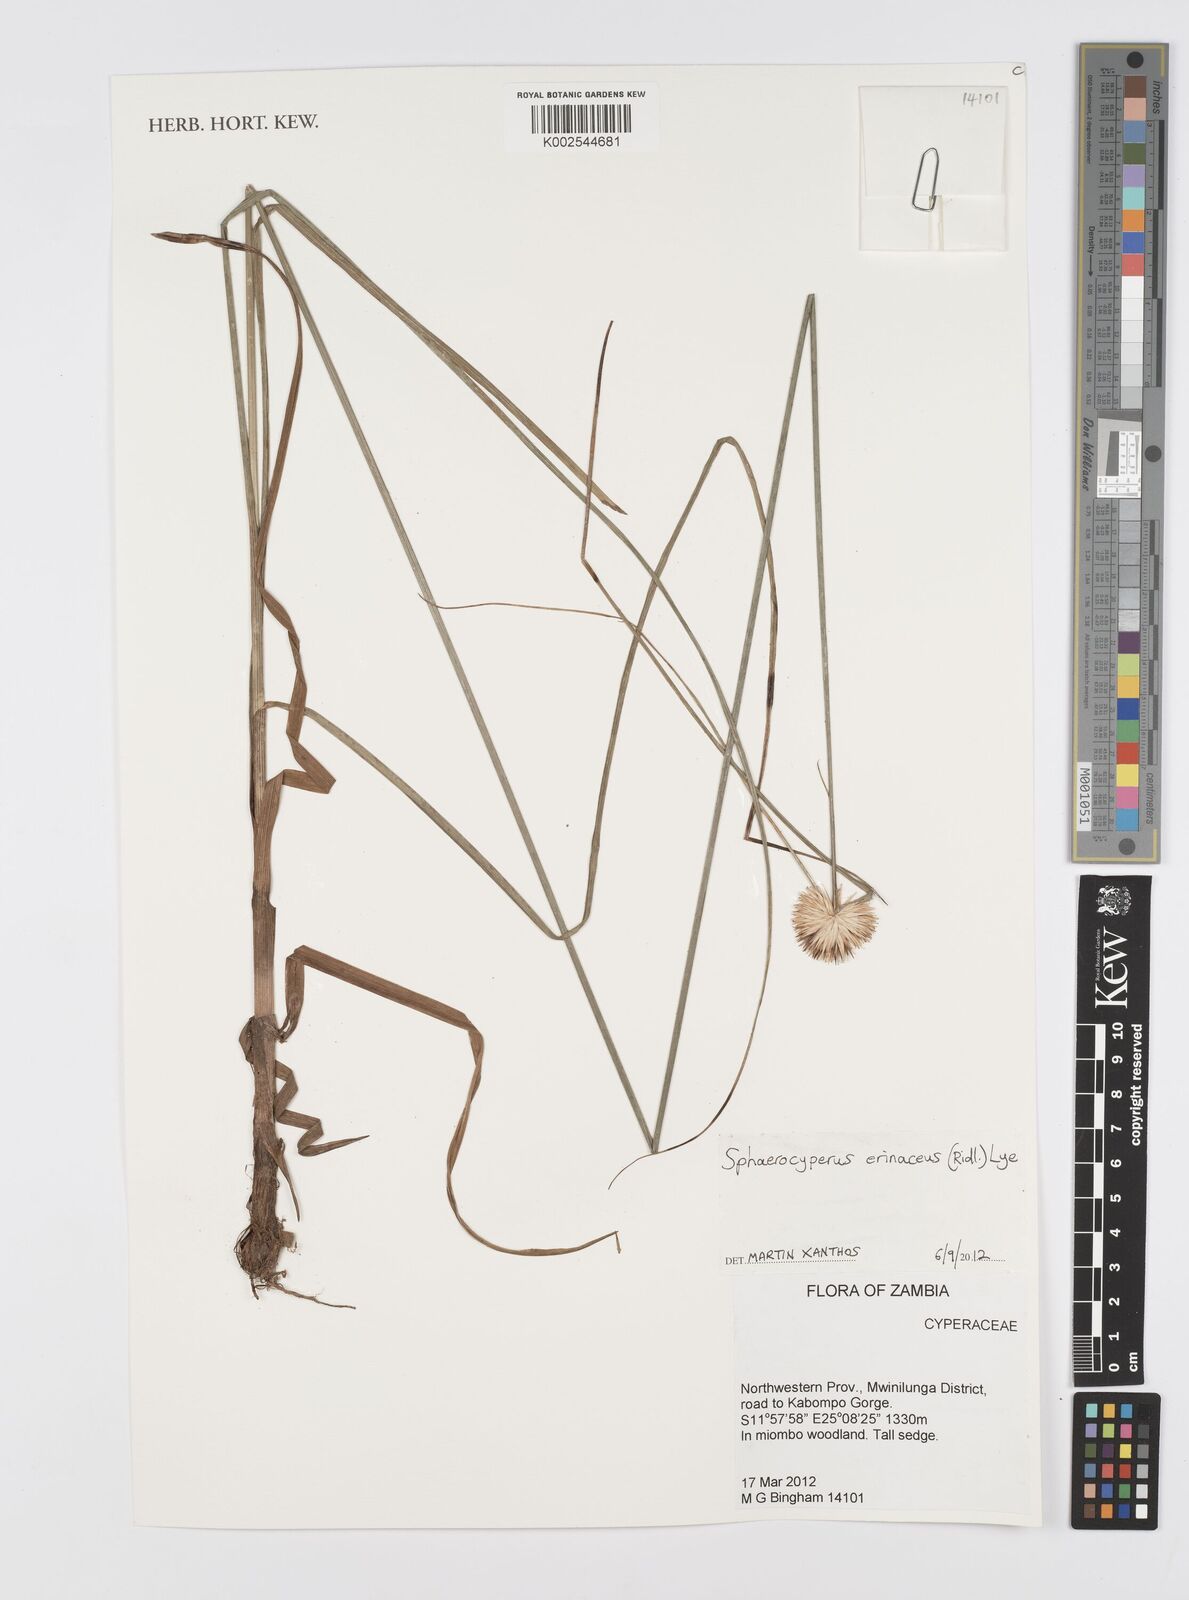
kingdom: Plantae
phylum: Tracheophyta
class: Liliopsida
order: Poales
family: Cyperaceae
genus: Cyperus
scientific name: Cyperus erinaceus
